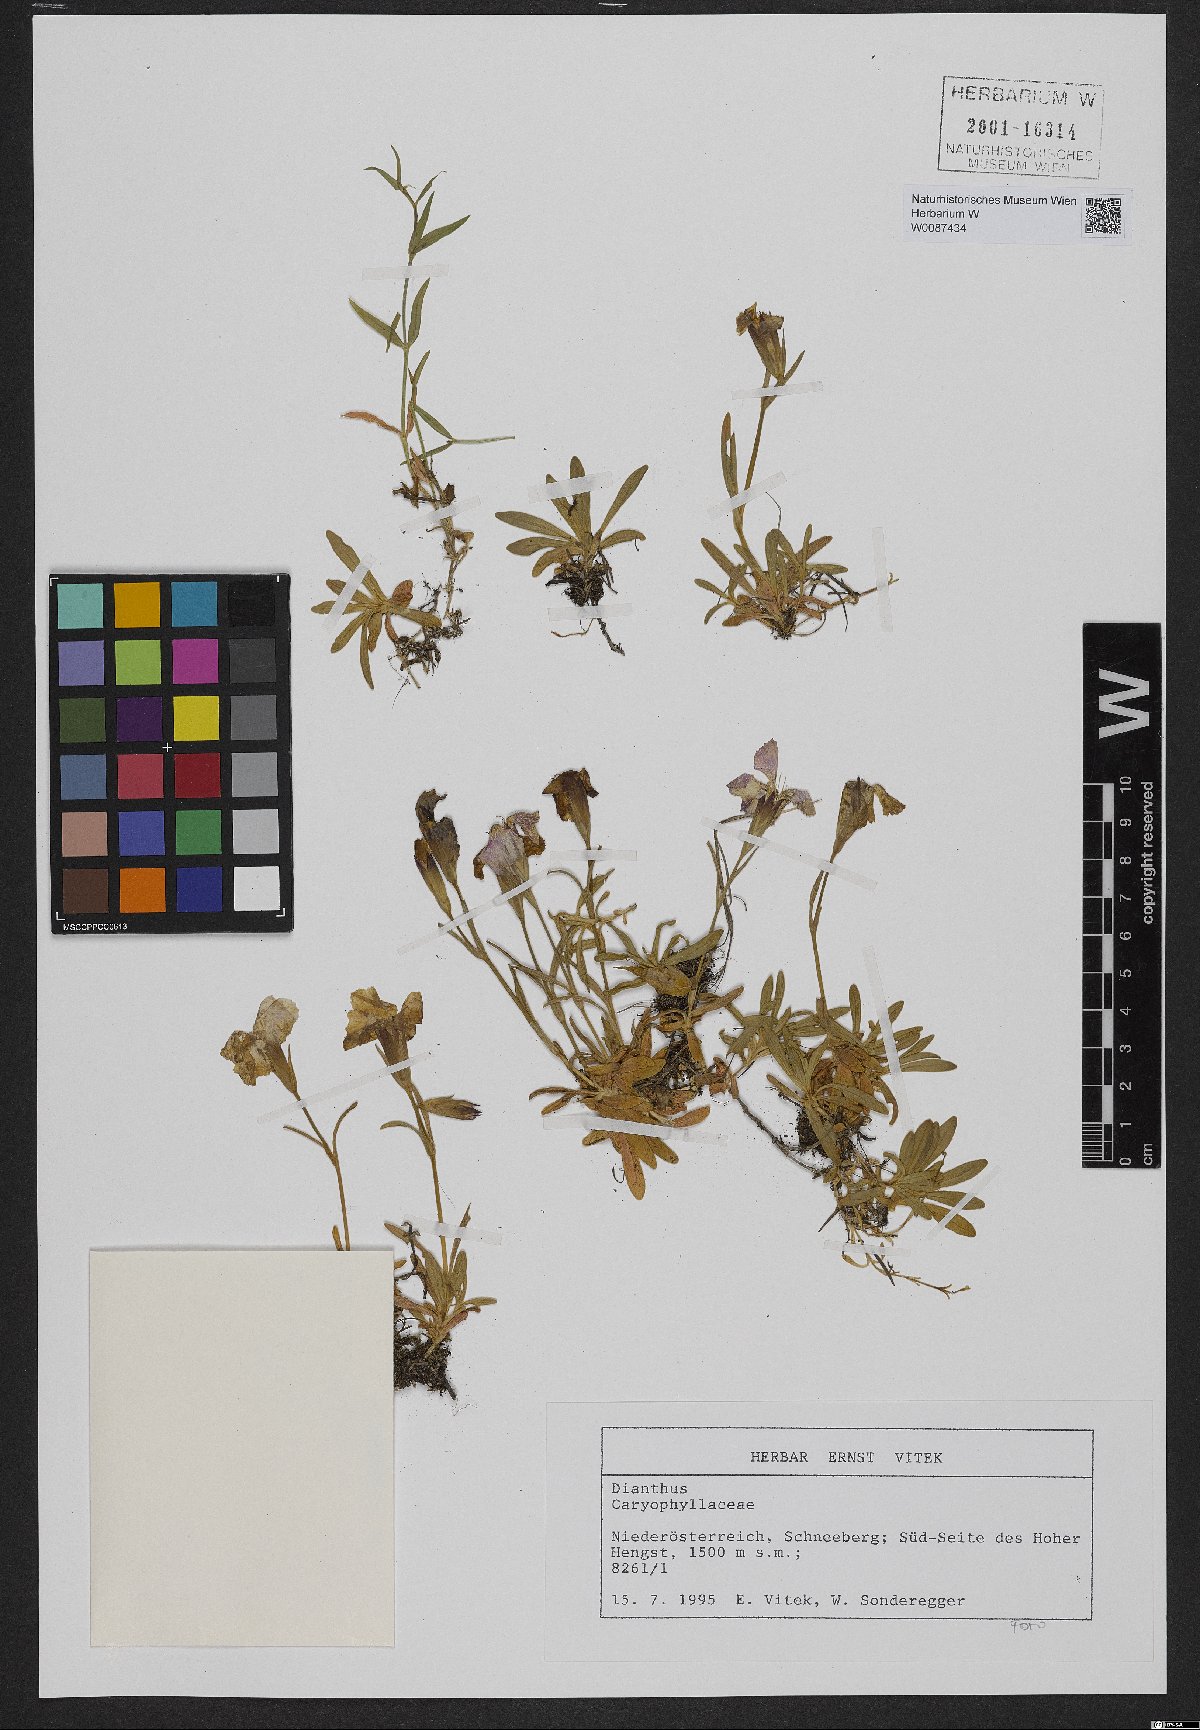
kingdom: Plantae
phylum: Tracheophyta
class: Magnoliopsida
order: Caryophyllales
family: Caryophyllaceae
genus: Dianthus
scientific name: Dianthus alpinus
